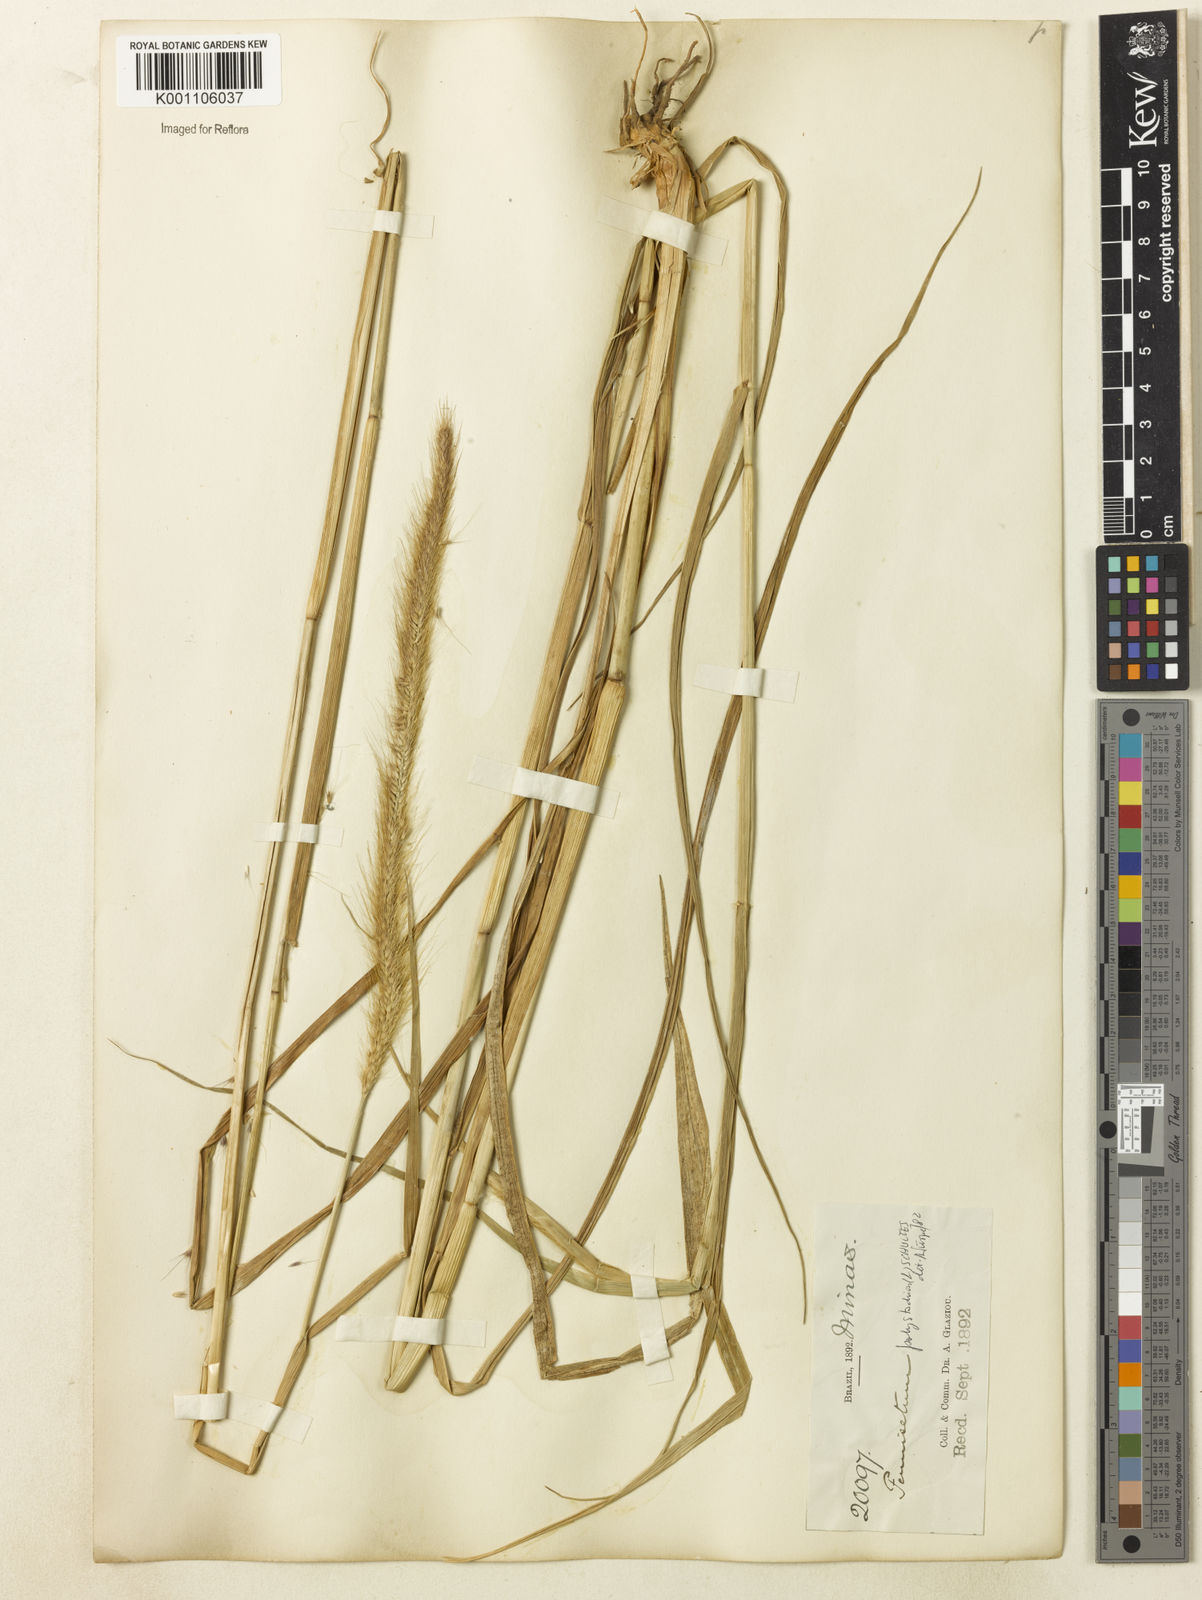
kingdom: Plantae
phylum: Tracheophyta
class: Liliopsida
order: Poales
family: Poaceae
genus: Setaria
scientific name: Setaria parviflora
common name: Knotroot bristle-grass
